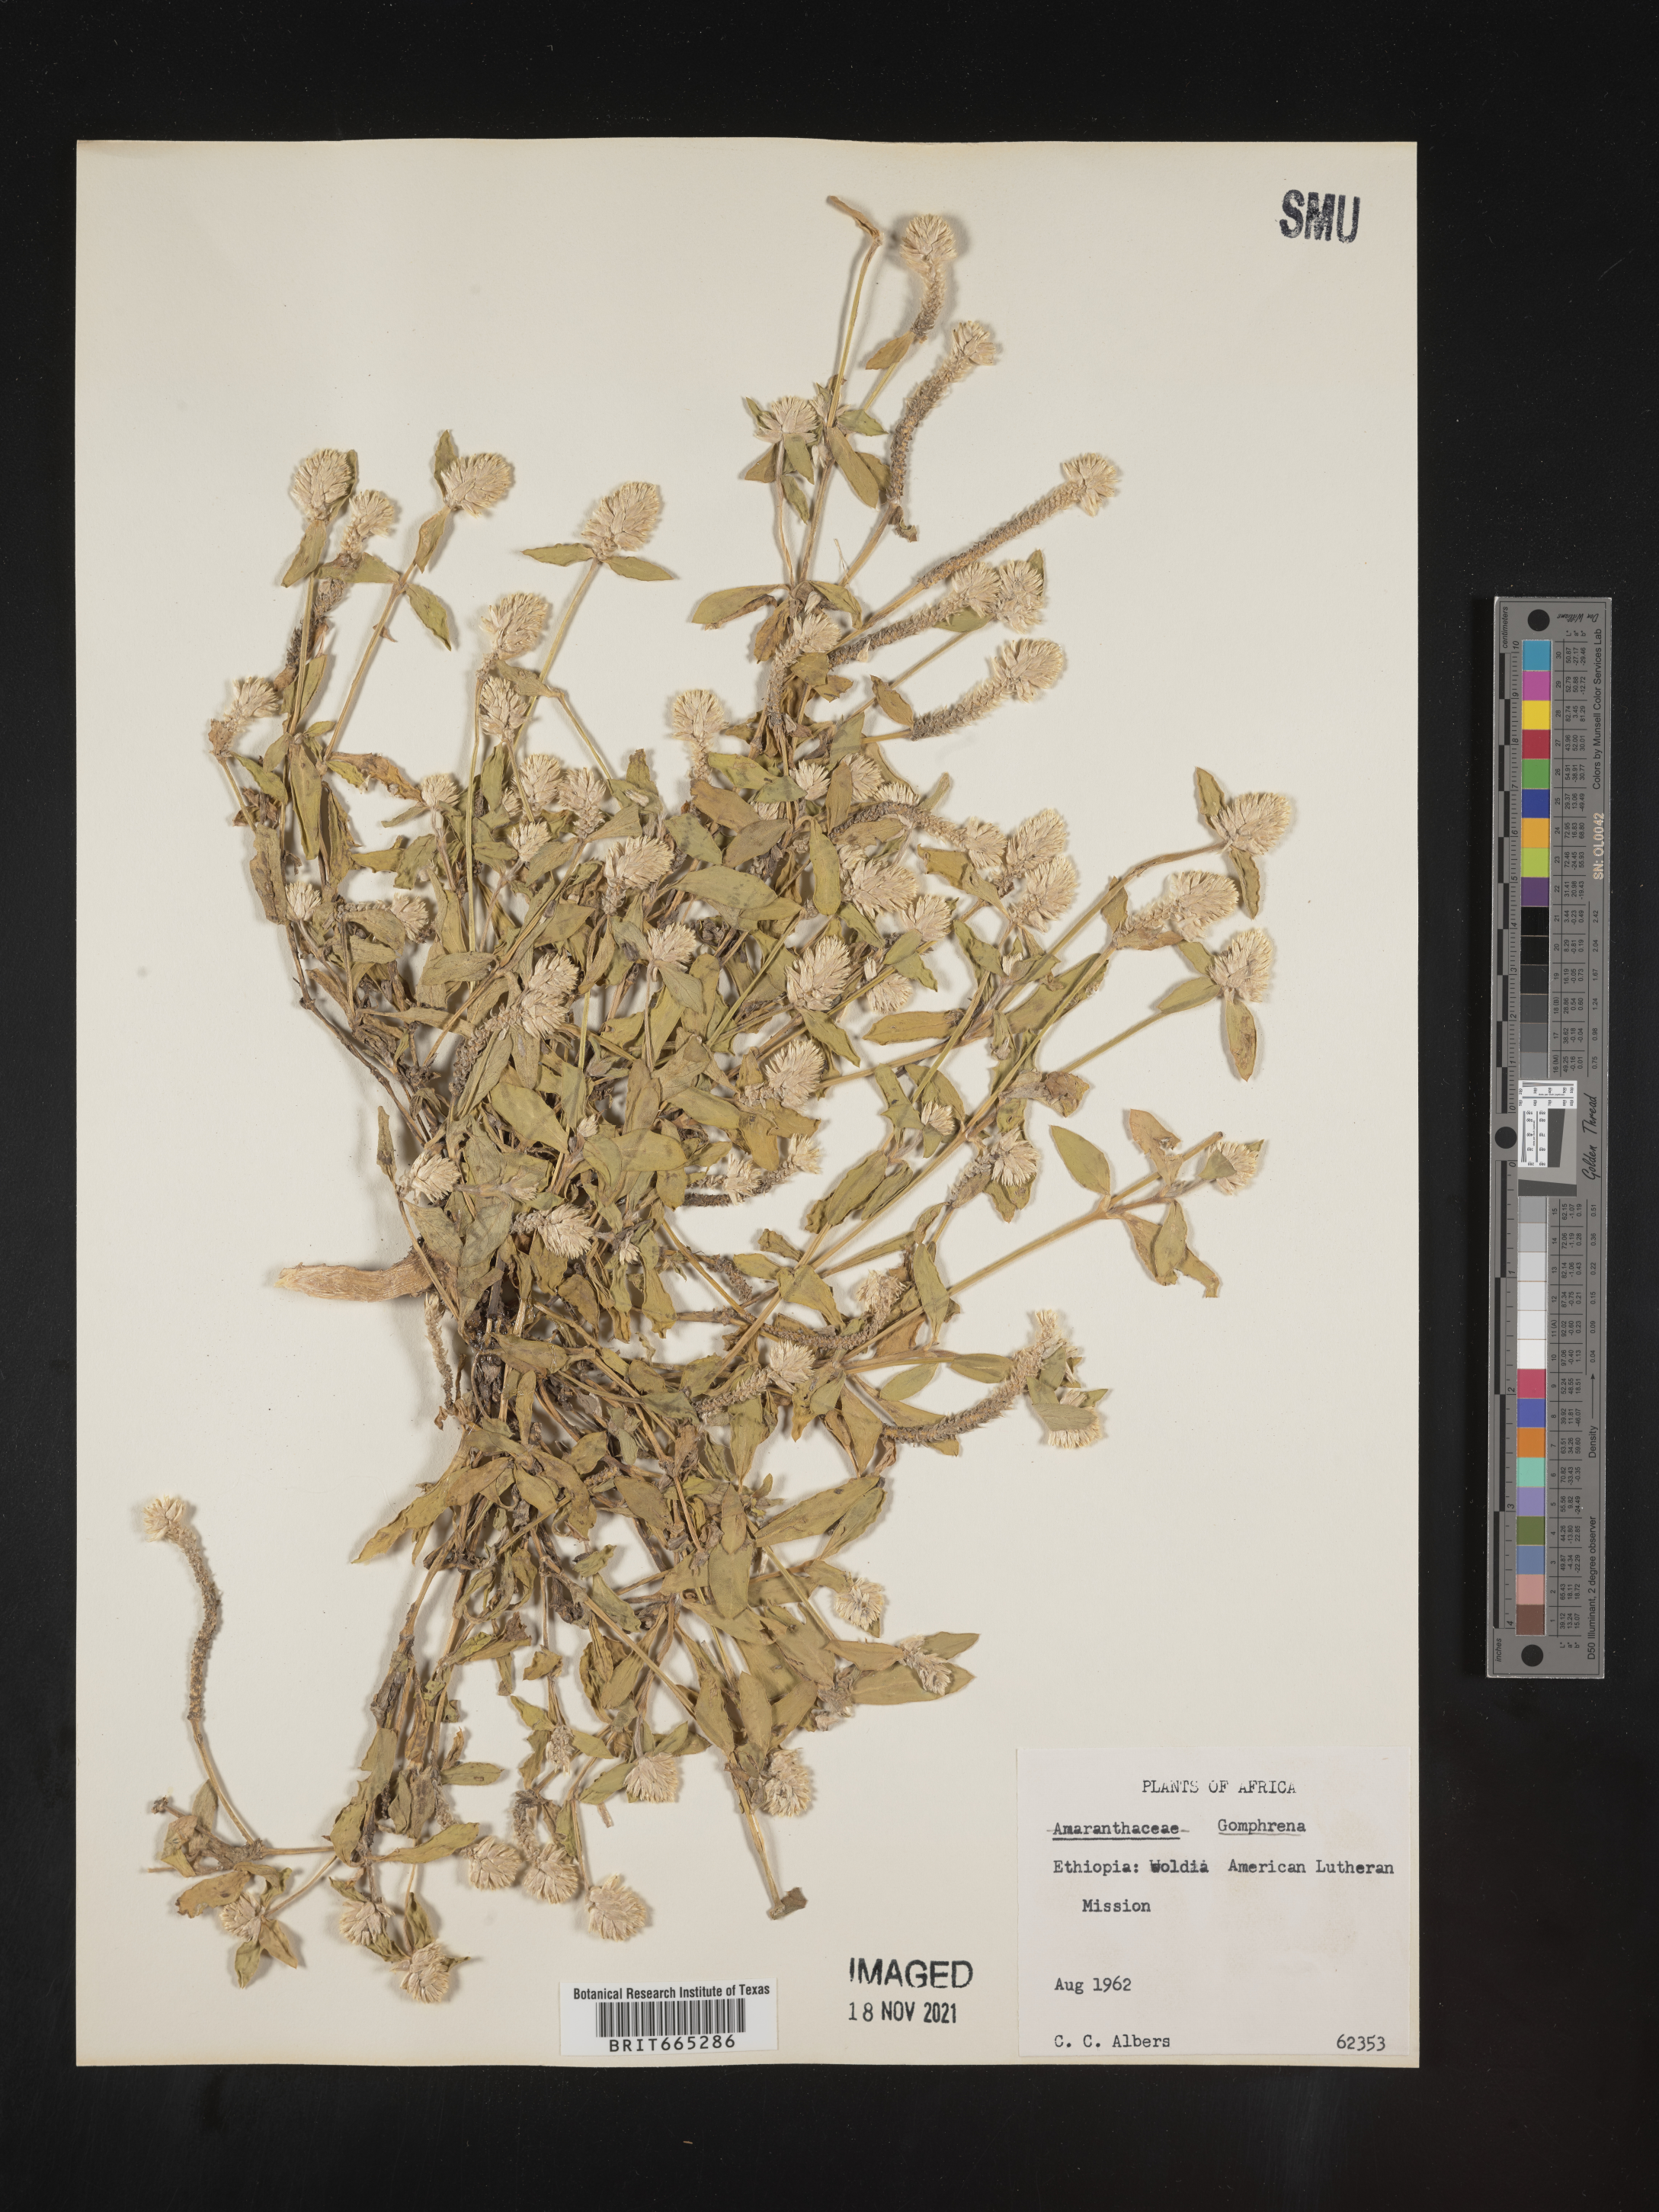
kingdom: Plantae
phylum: Tracheophyta
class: Magnoliopsida
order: Caryophyllales
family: Amaranthaceae
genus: Gomphrena
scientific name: Gomphrena
